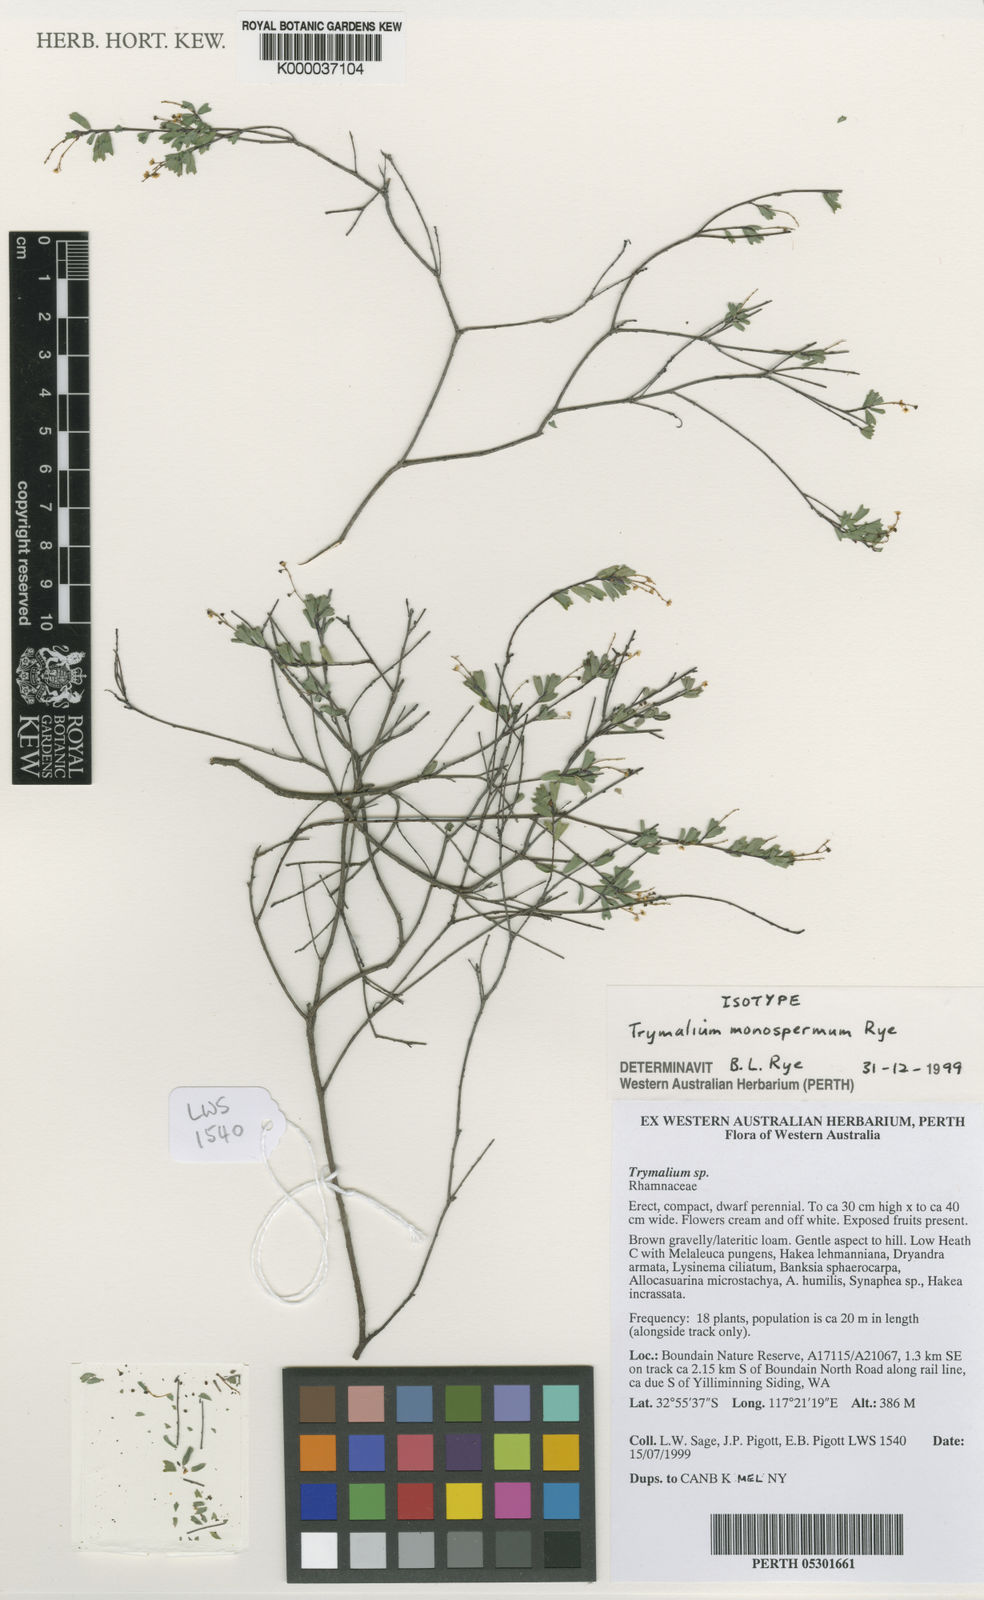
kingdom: Plantae
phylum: Tracheophyta
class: Magnoliopsida
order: Rosales
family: Rhamnaceae
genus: Trymalium
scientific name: Trymalium monospermum
